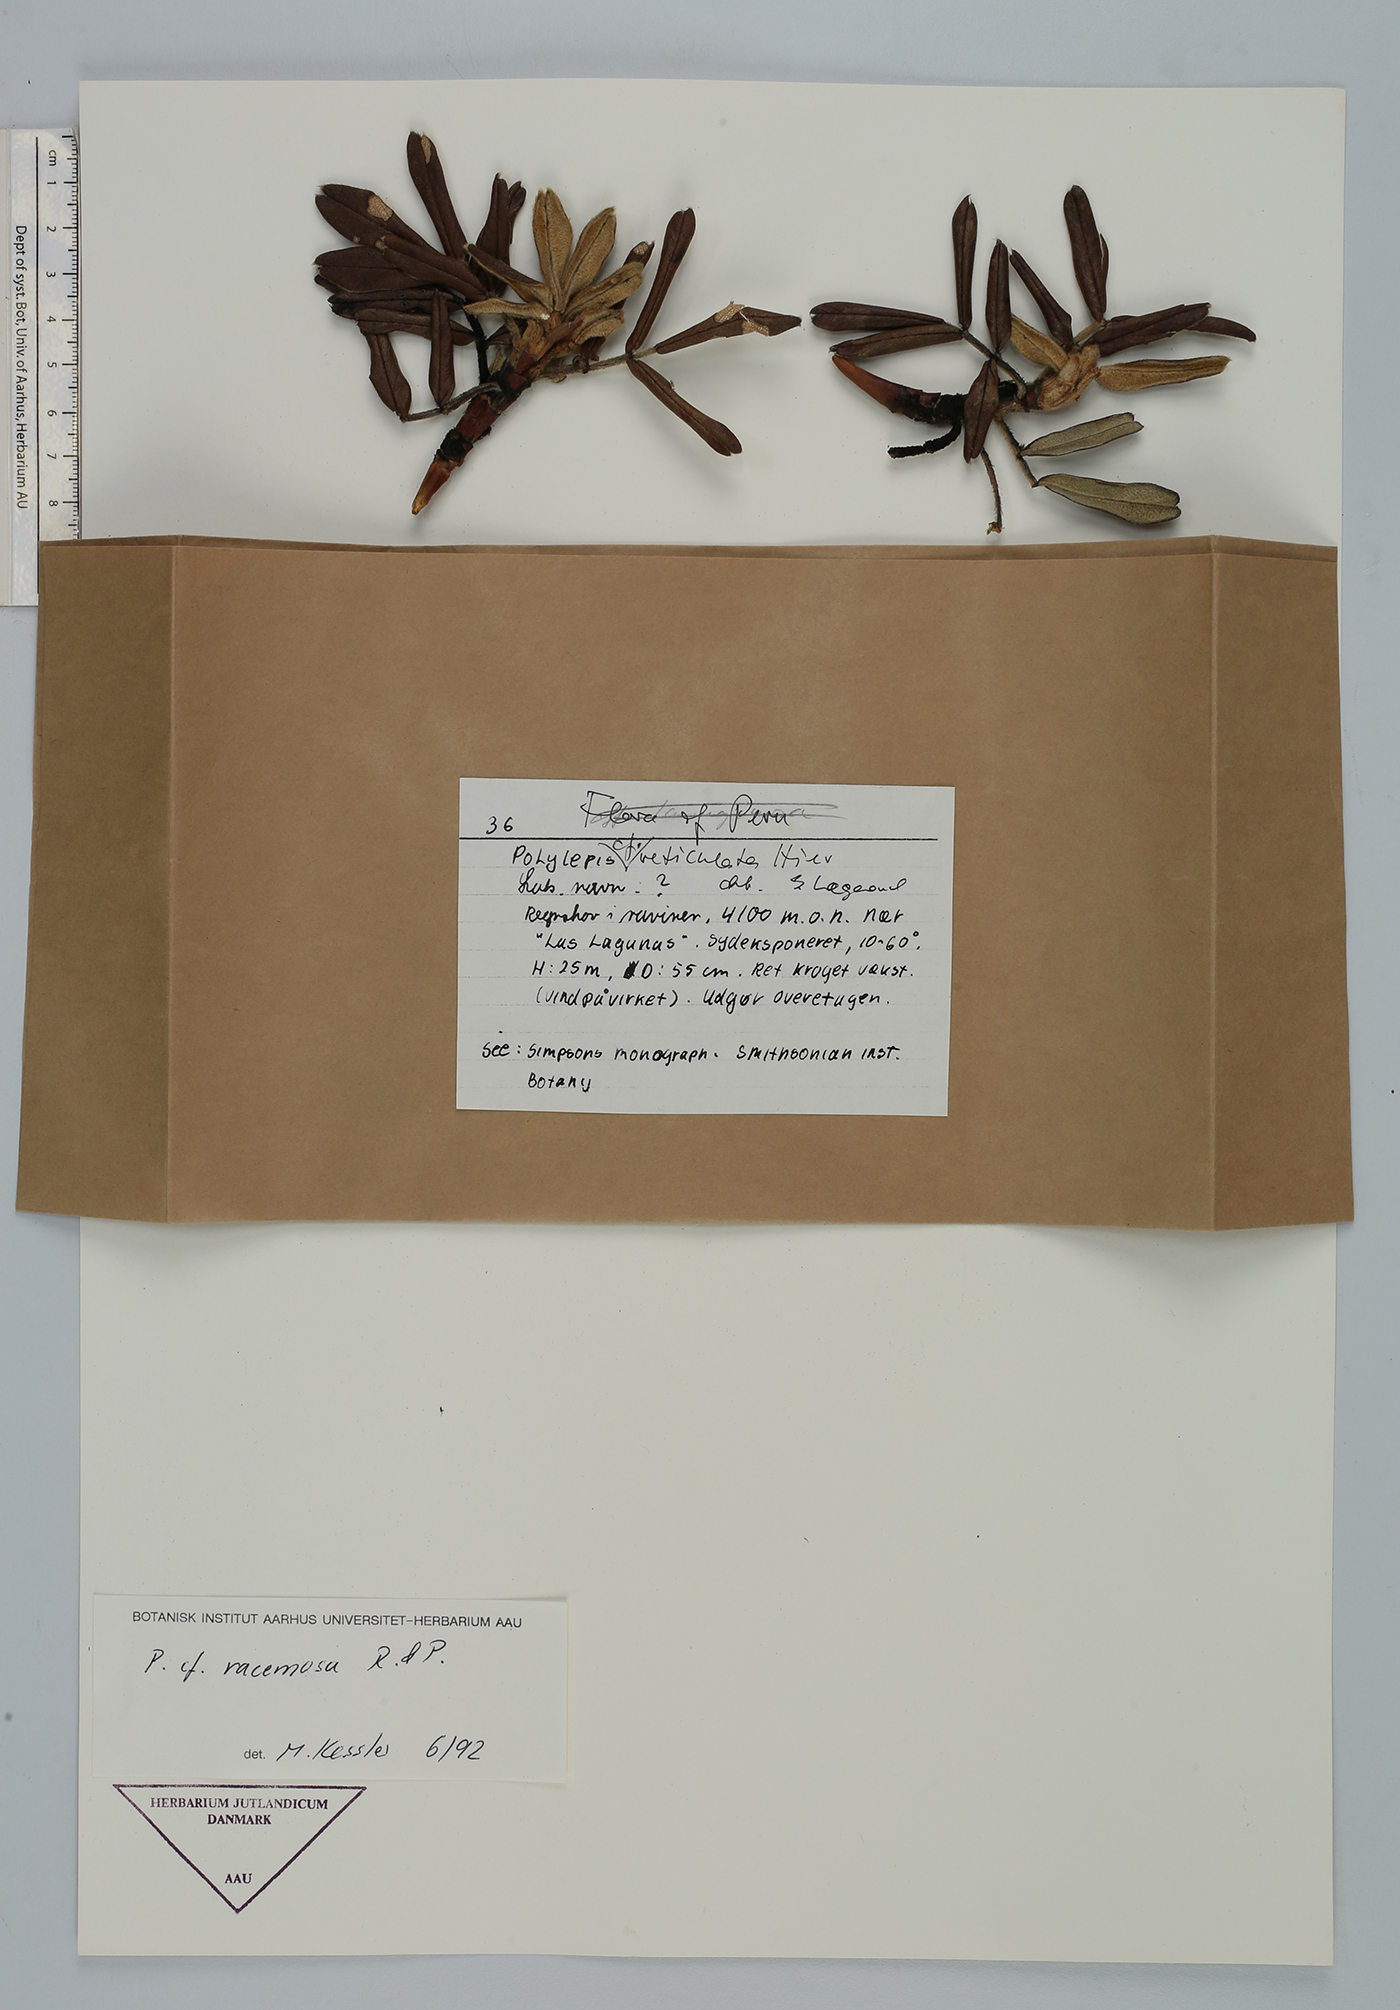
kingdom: Plantae
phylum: Tracheophyta
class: Magnoliopsida
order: Rosales
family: Rosaceae
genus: Polylepis
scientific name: Polylepis racemosa
